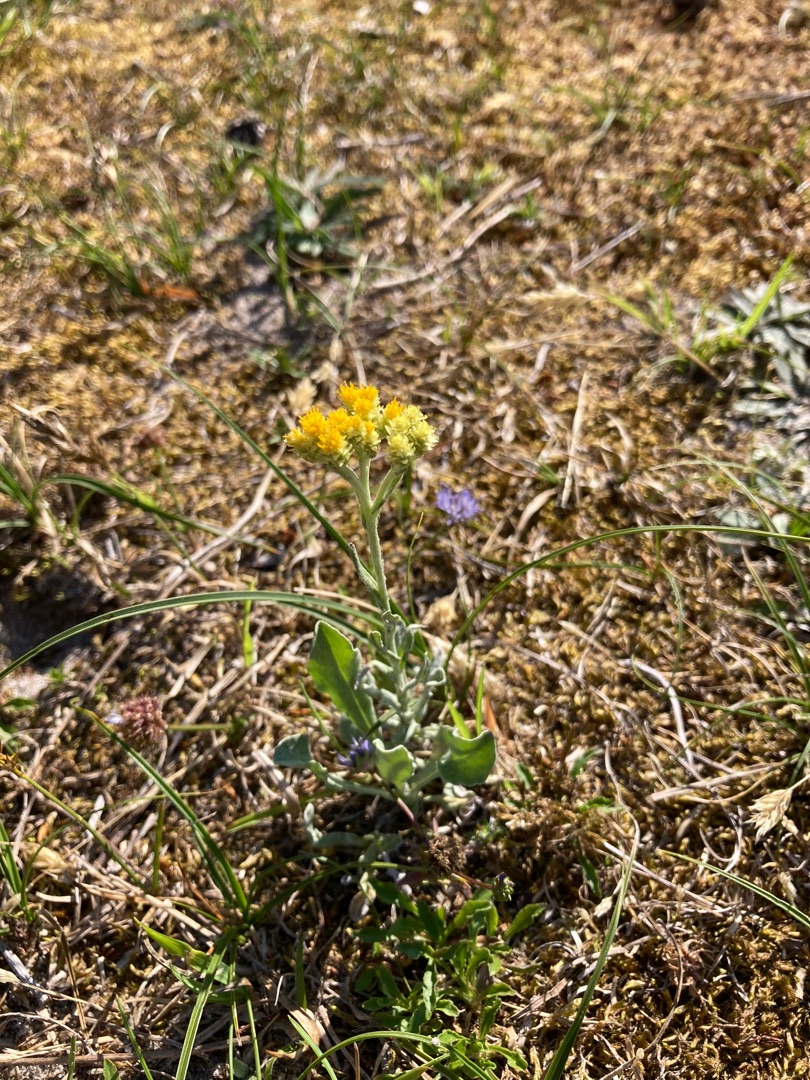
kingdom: Plantae
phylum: Tracheophyta
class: Magnoliopsida
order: Asterales
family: Asteraceae
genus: Helichrysum
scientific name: Helichrysum arenarium
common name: Gul evighedsblomst
